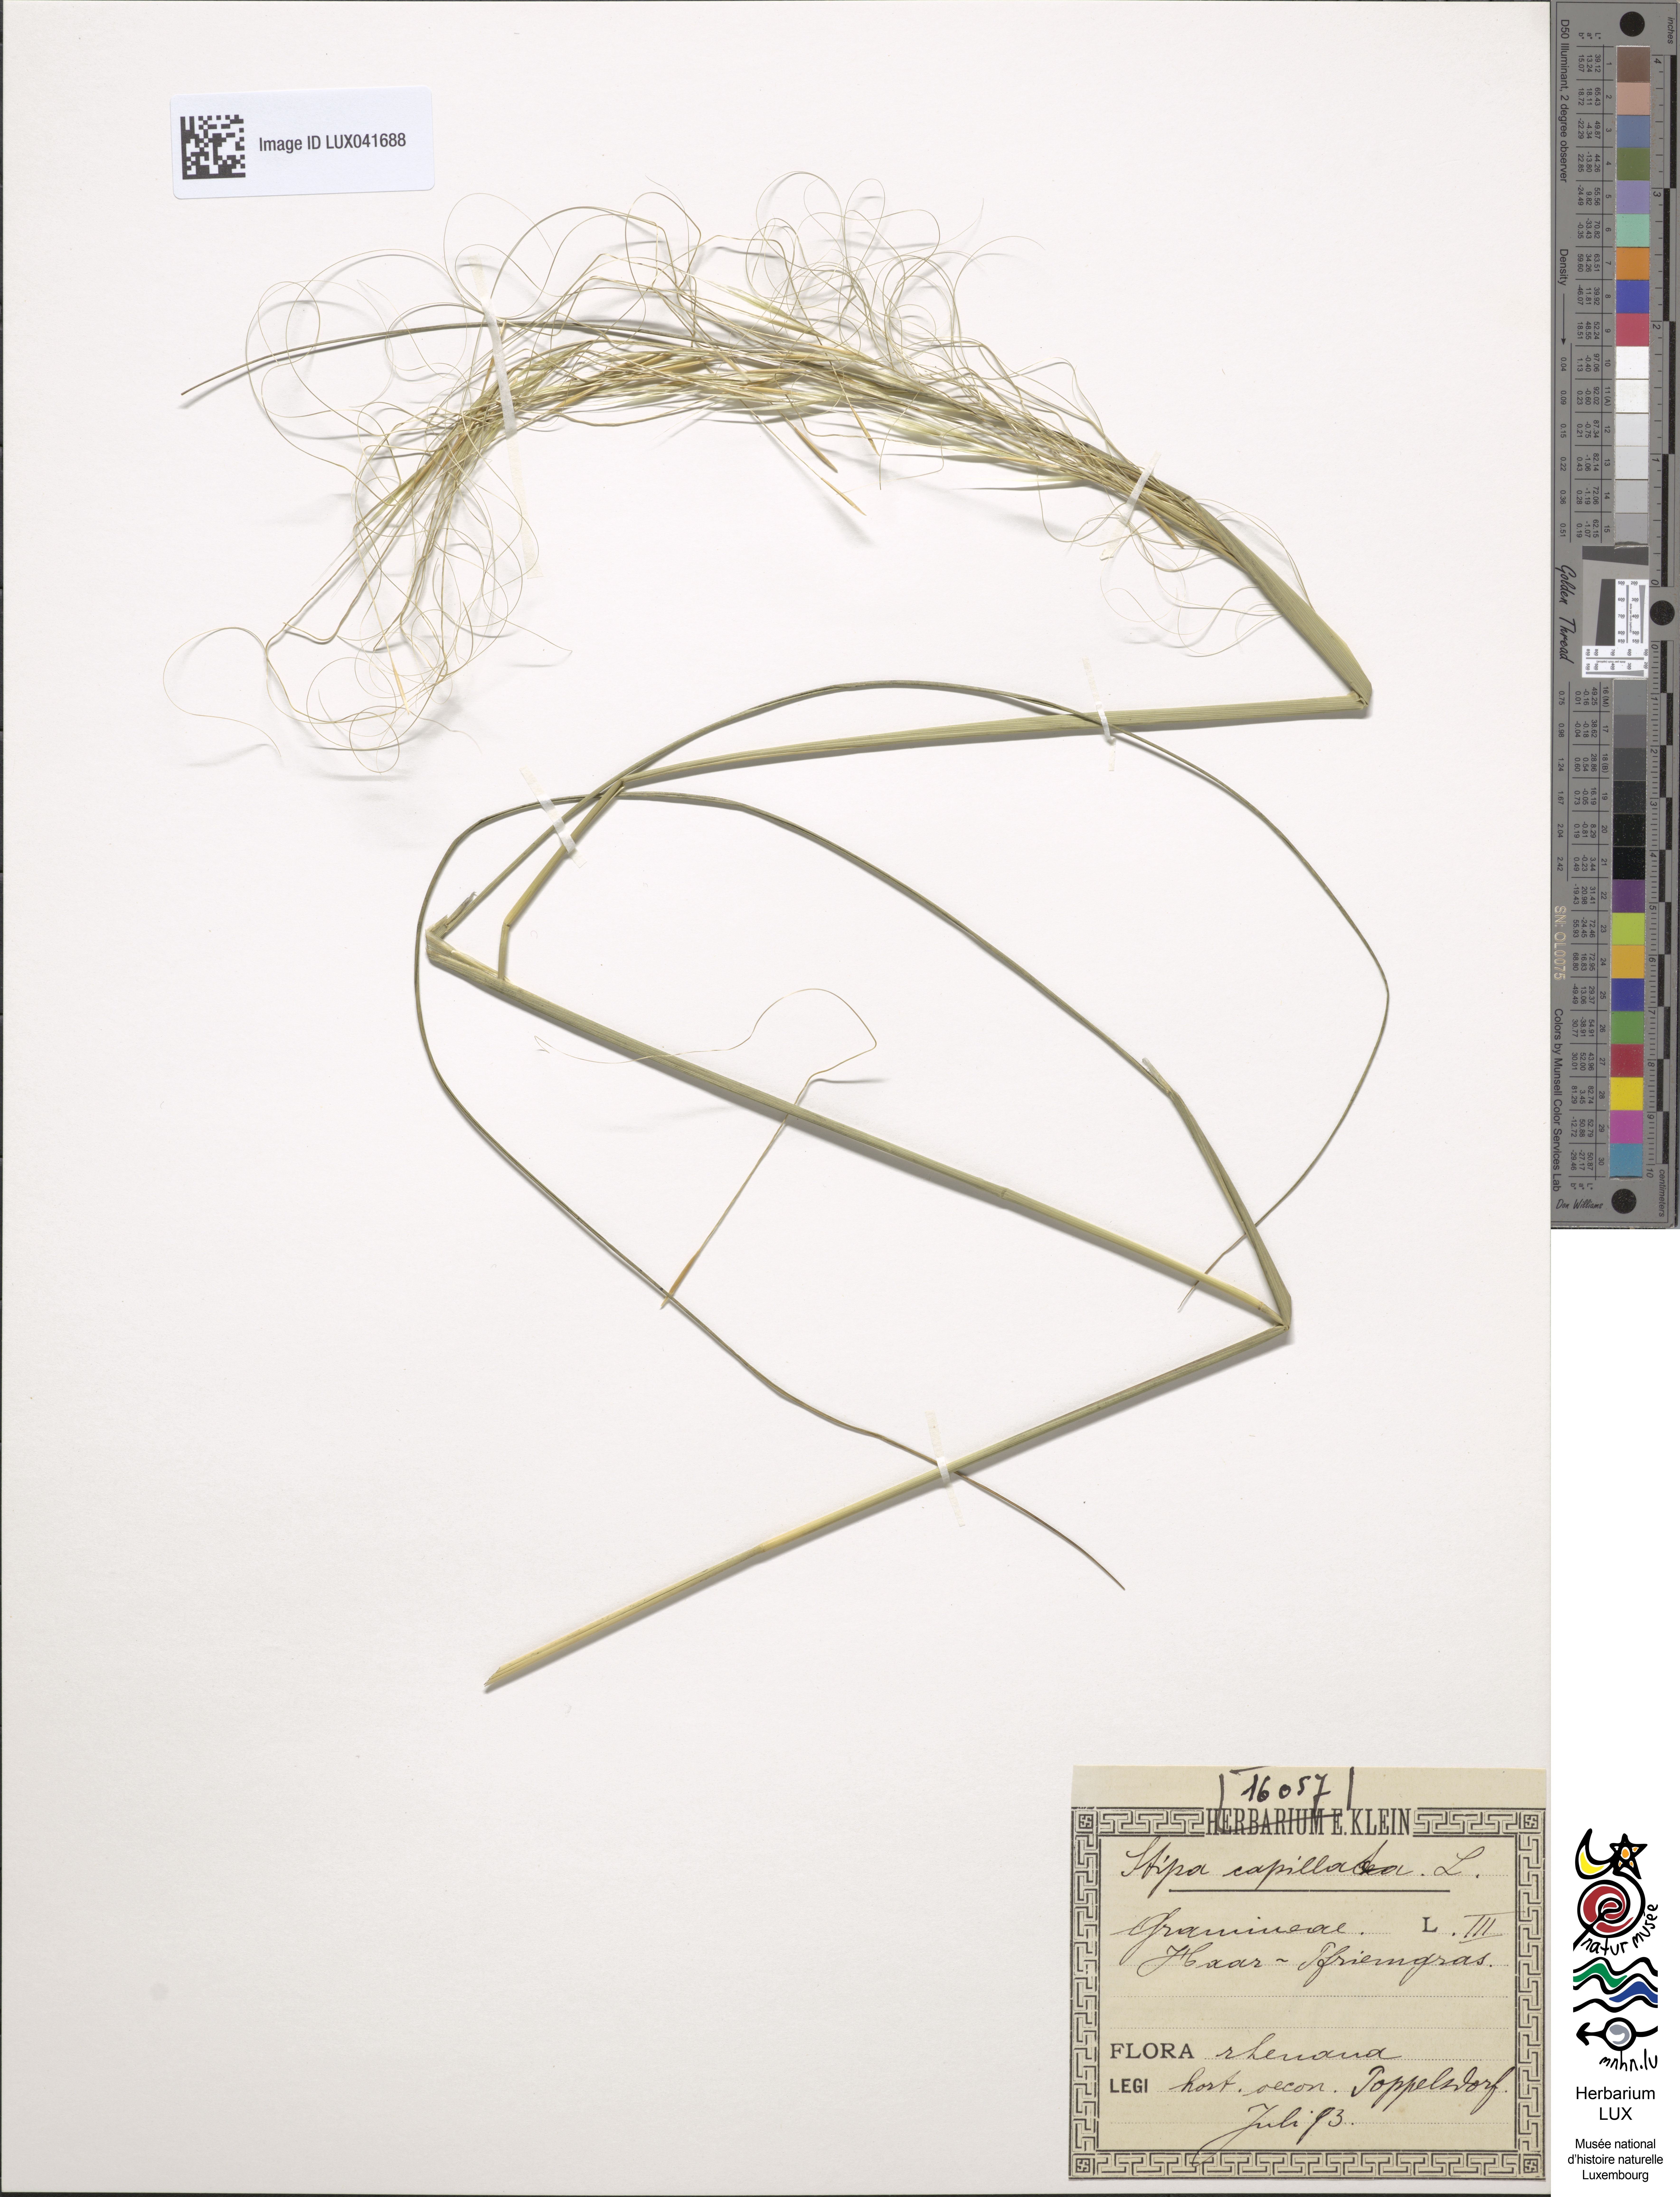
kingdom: Plantae
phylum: Tracheophyta
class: Liliopsida
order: Poales
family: Poaceae
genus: Stipa
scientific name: Stipa capillata
